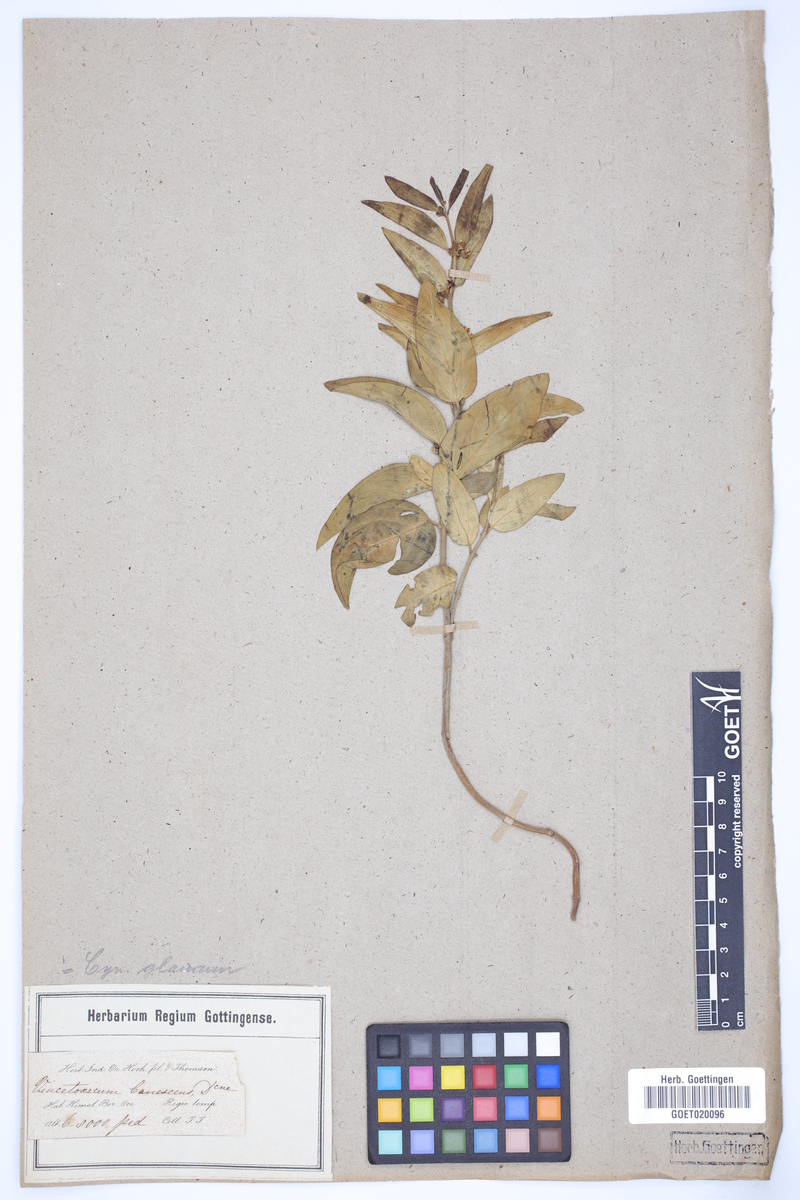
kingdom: Plantae
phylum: Tracheophyta
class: Magnoliopsida
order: Gentianales
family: Apocynaceae
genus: Vincetoxicum
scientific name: Vincetoxicum arnottianum
